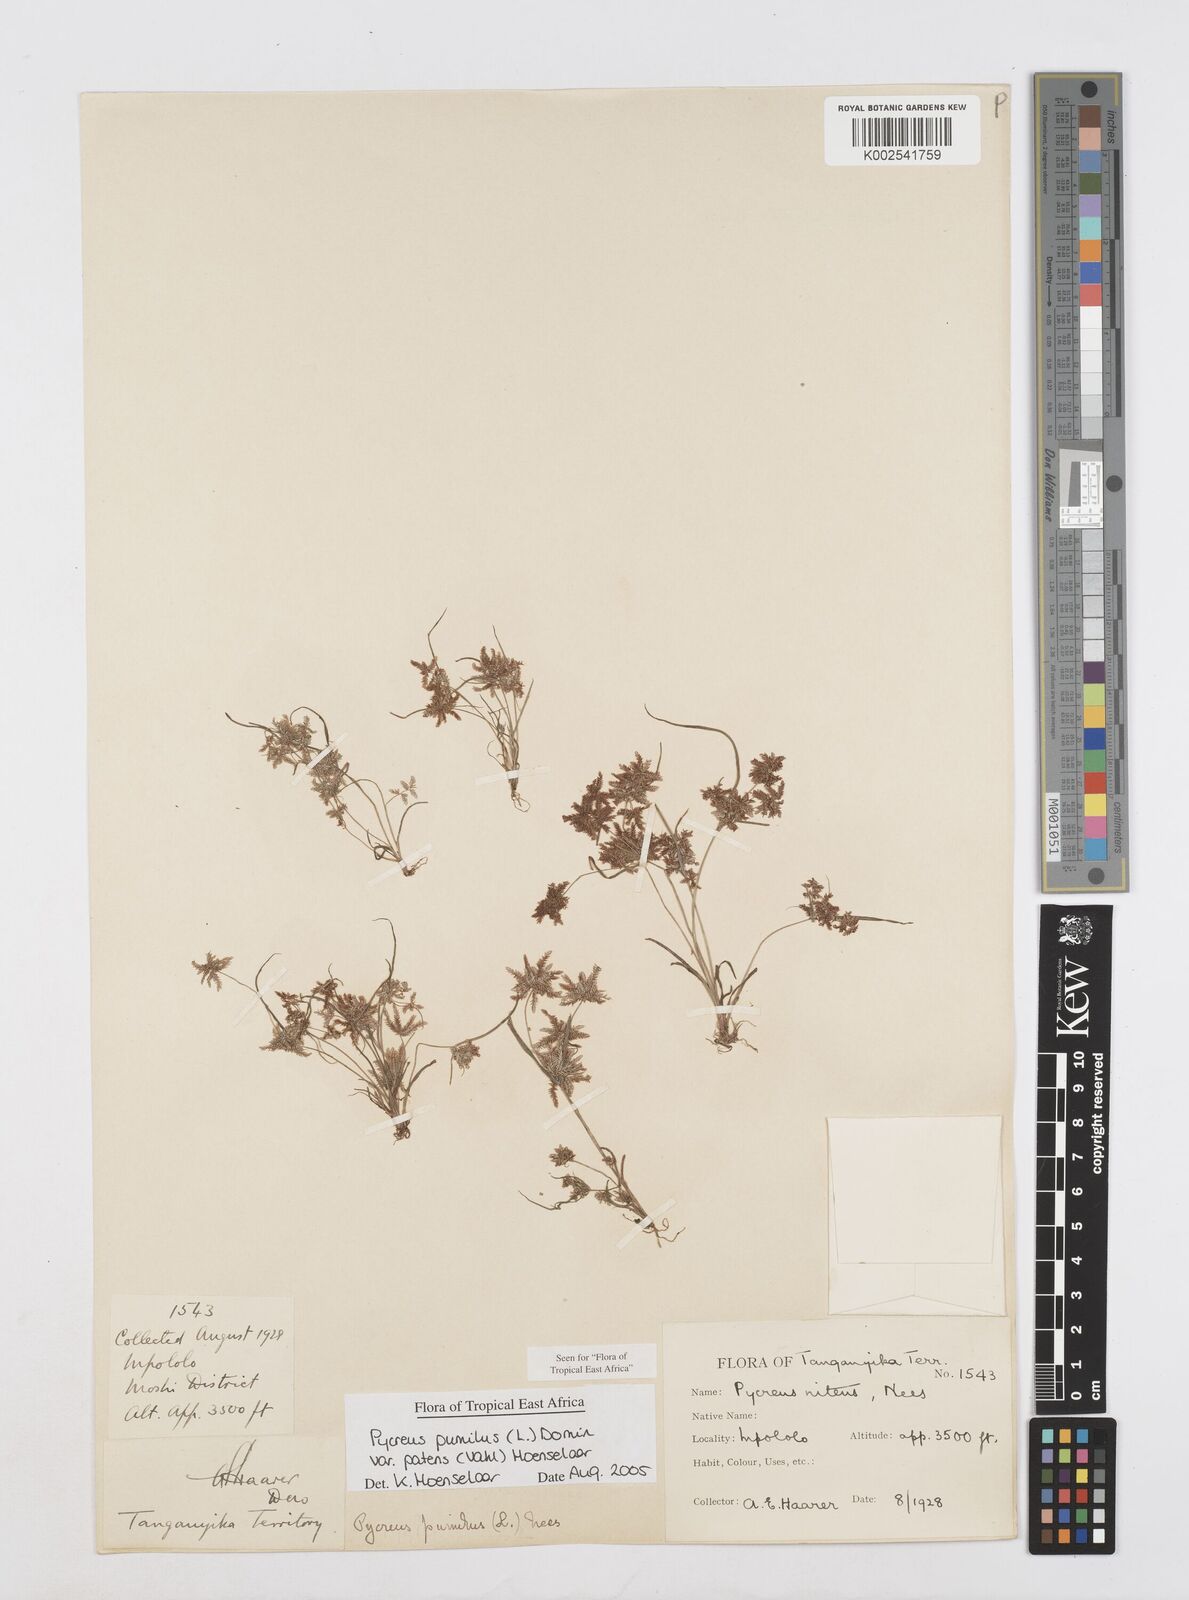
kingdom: Plantae
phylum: Tracheophyta
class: Liliopsida
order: Poales
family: Cyperaceae
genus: Cyperus
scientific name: Cyperus pumilus
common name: Low flatsedge
